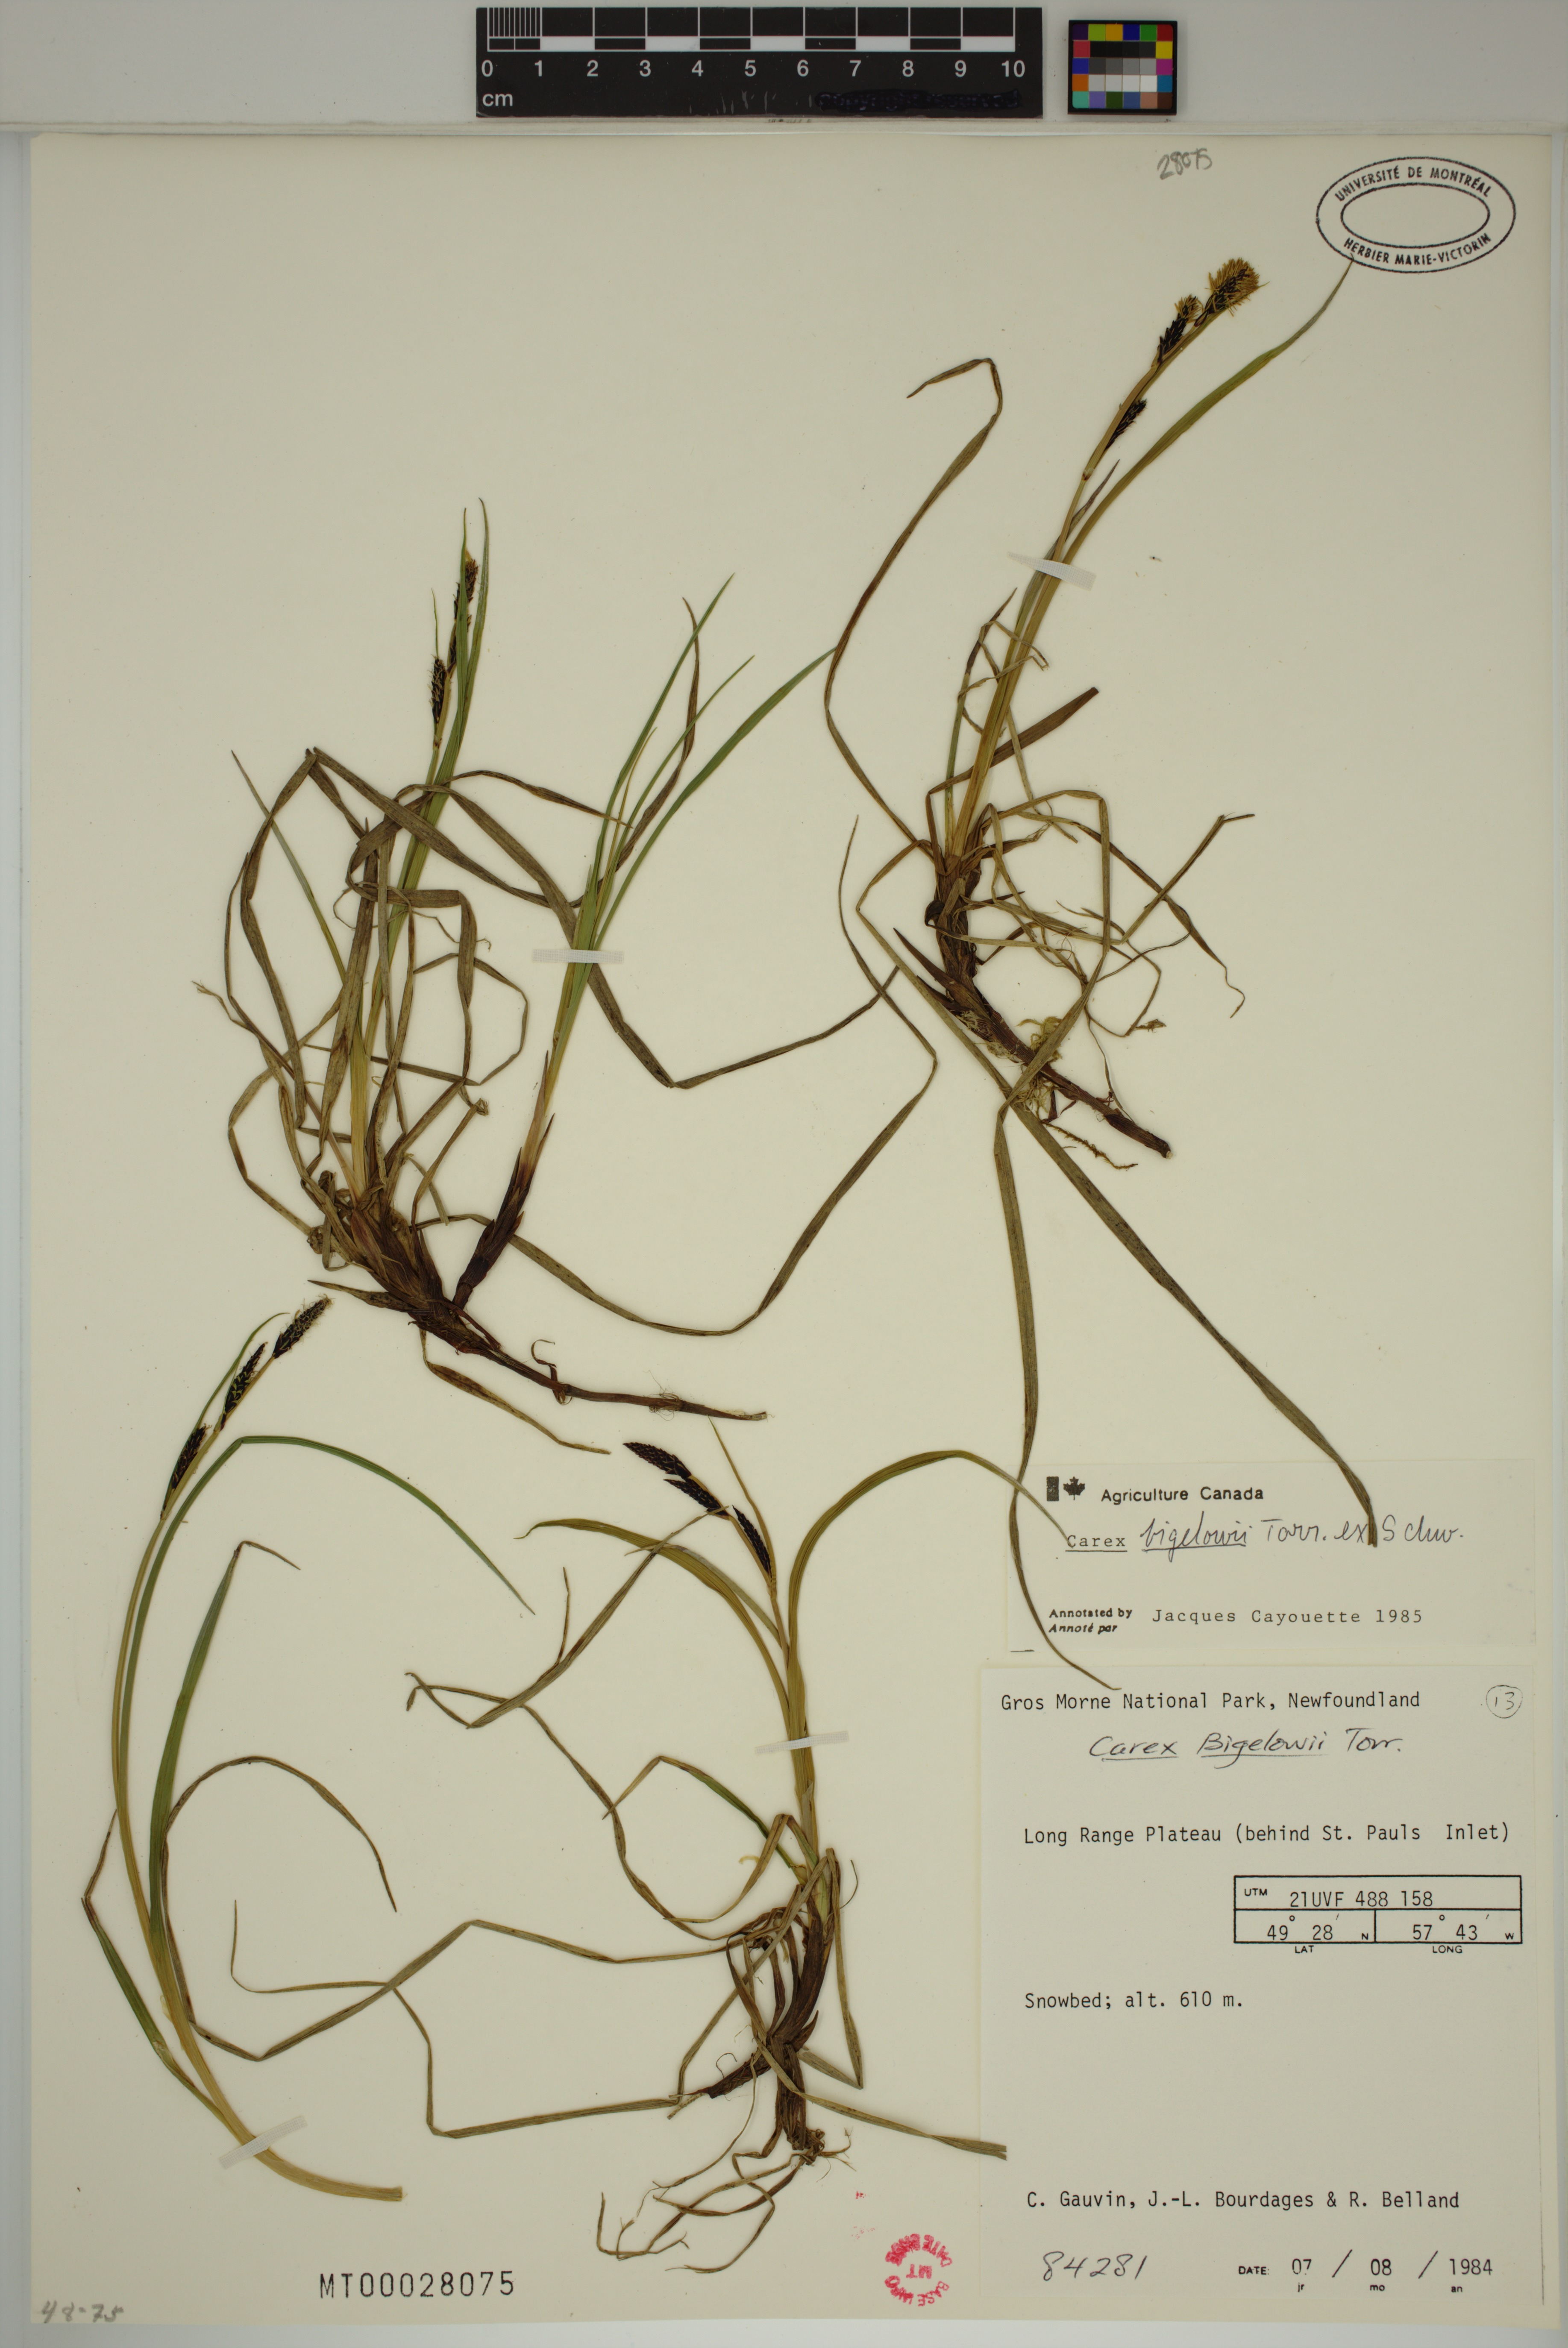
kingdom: Plantae
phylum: Tracheophyta
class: Liliopsida
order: Poales
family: Cyperaceae
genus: Carex
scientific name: Carex bigelowii
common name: Stiff sedge
